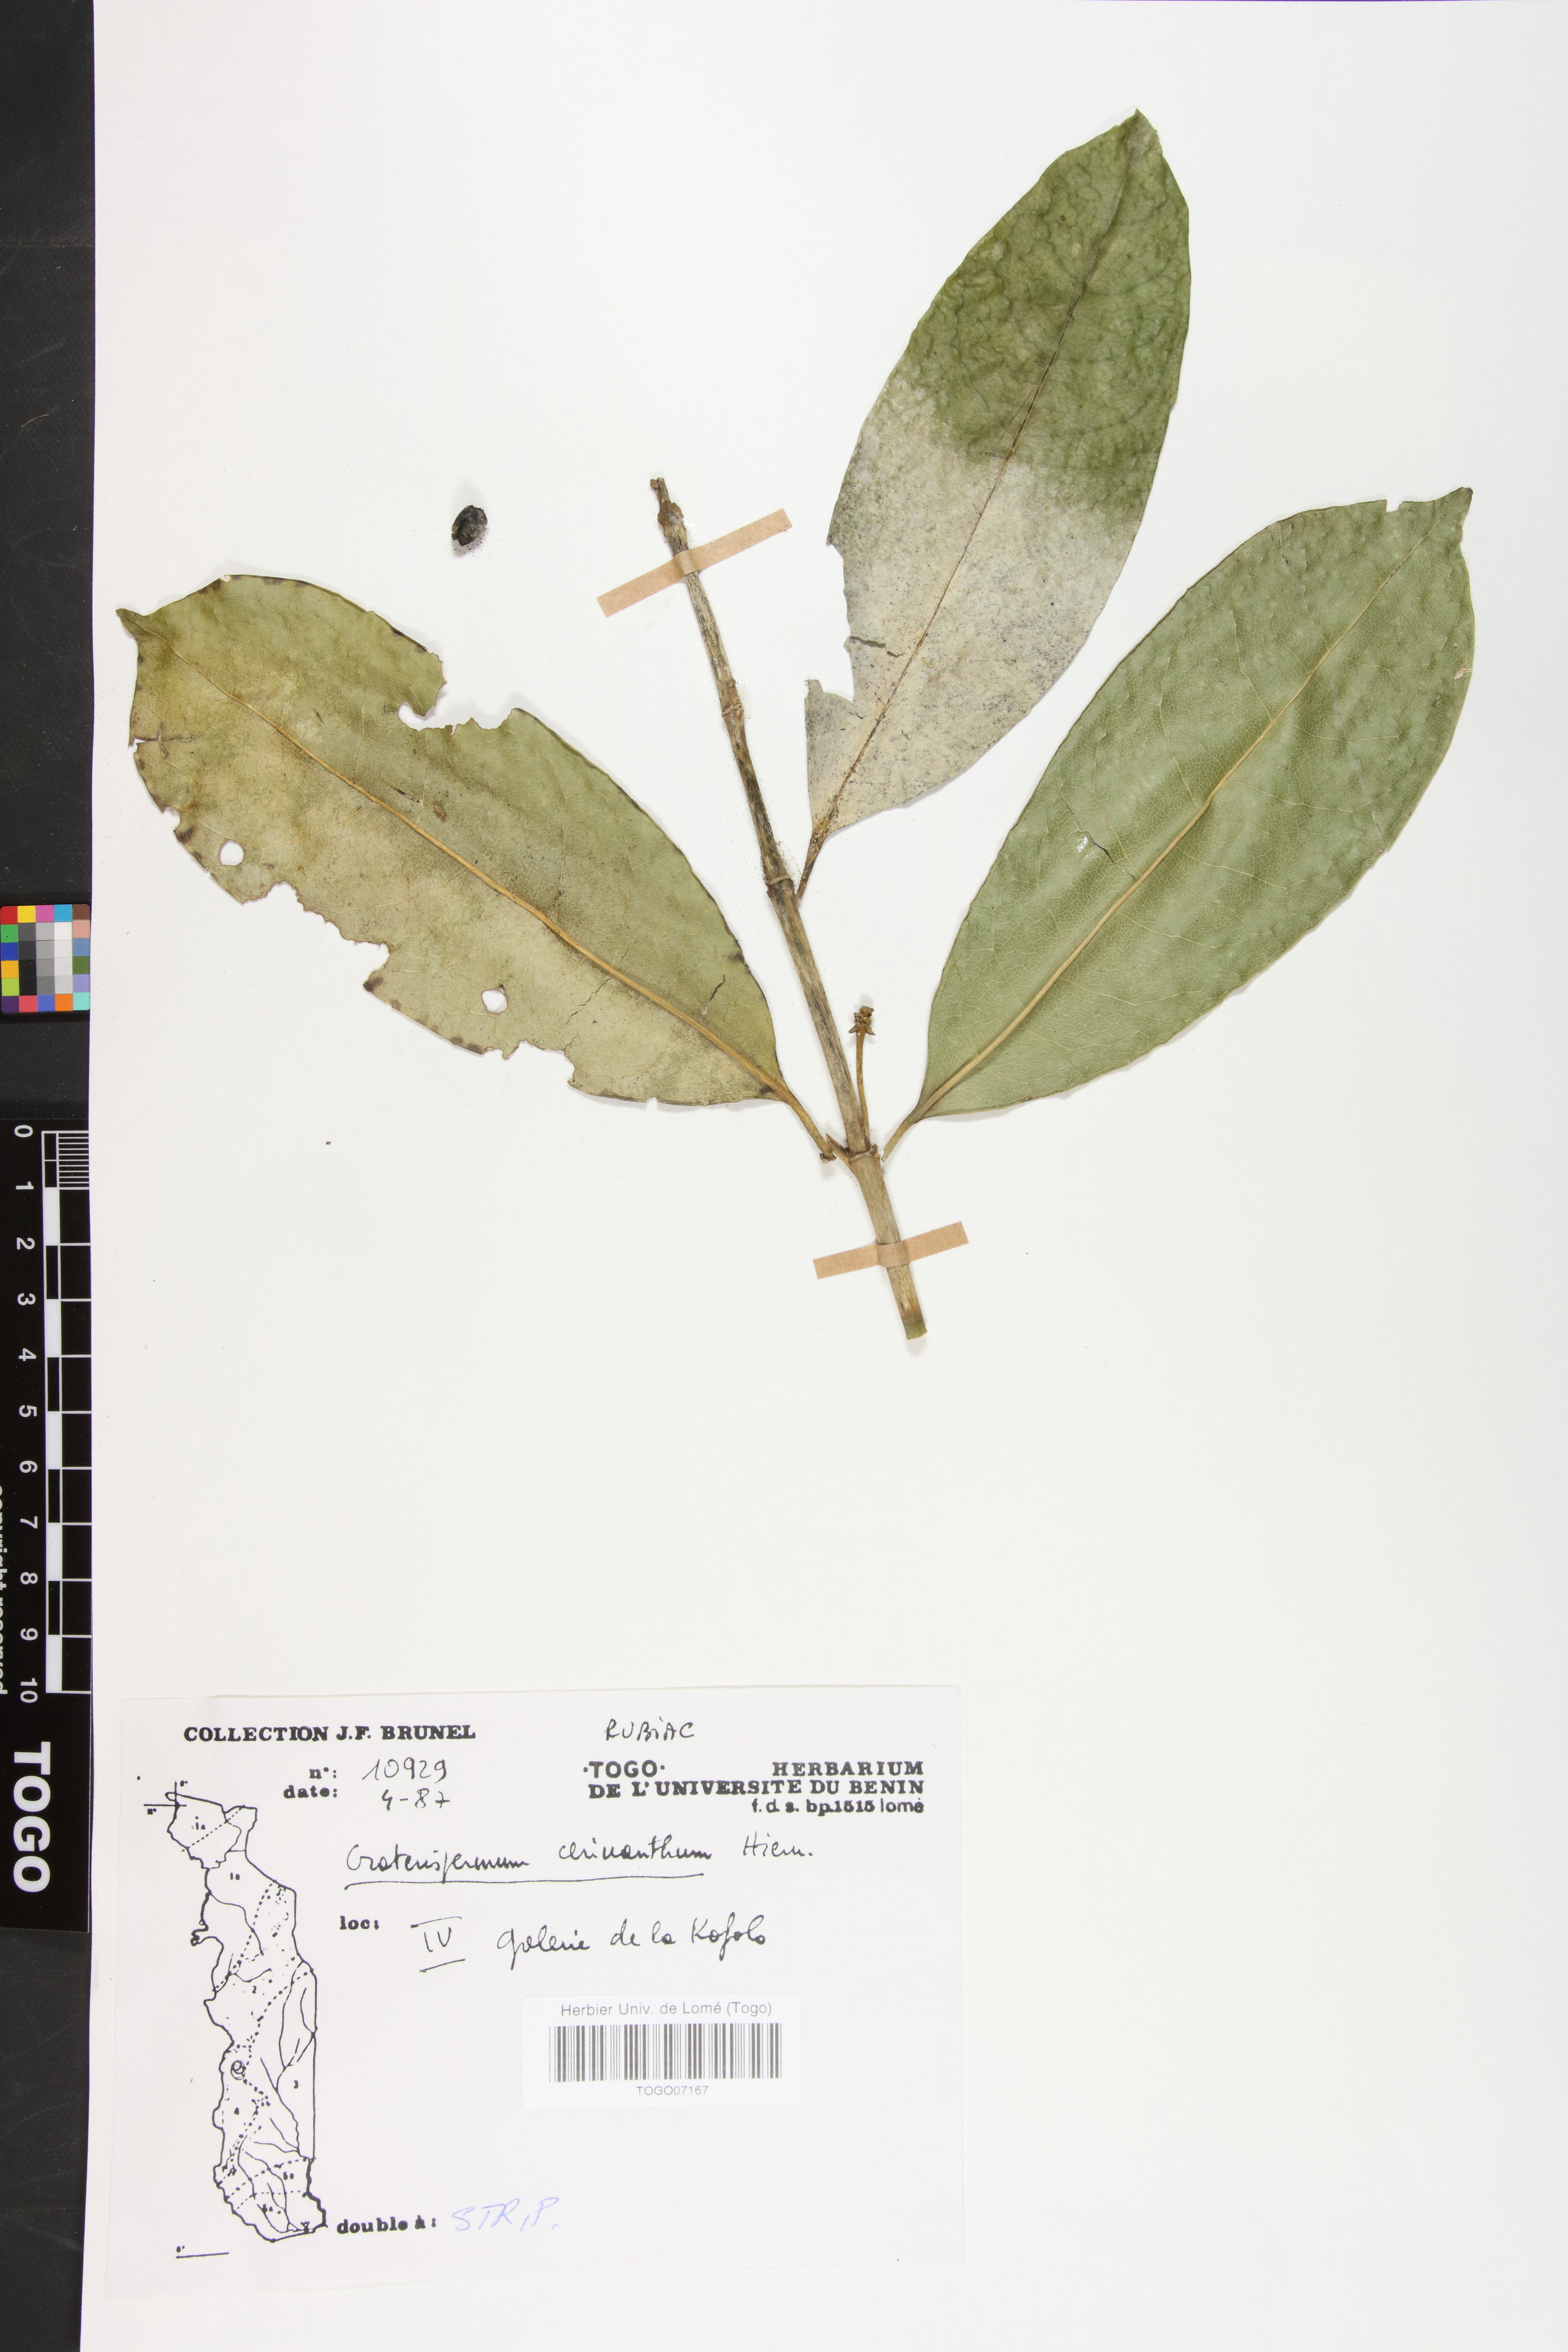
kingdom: Plantae
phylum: Tracheophyta
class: Magnoliopsida
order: Gentianales
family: Rubiaceae
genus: Craterispermum
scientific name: Craterispermum cerinanthum
